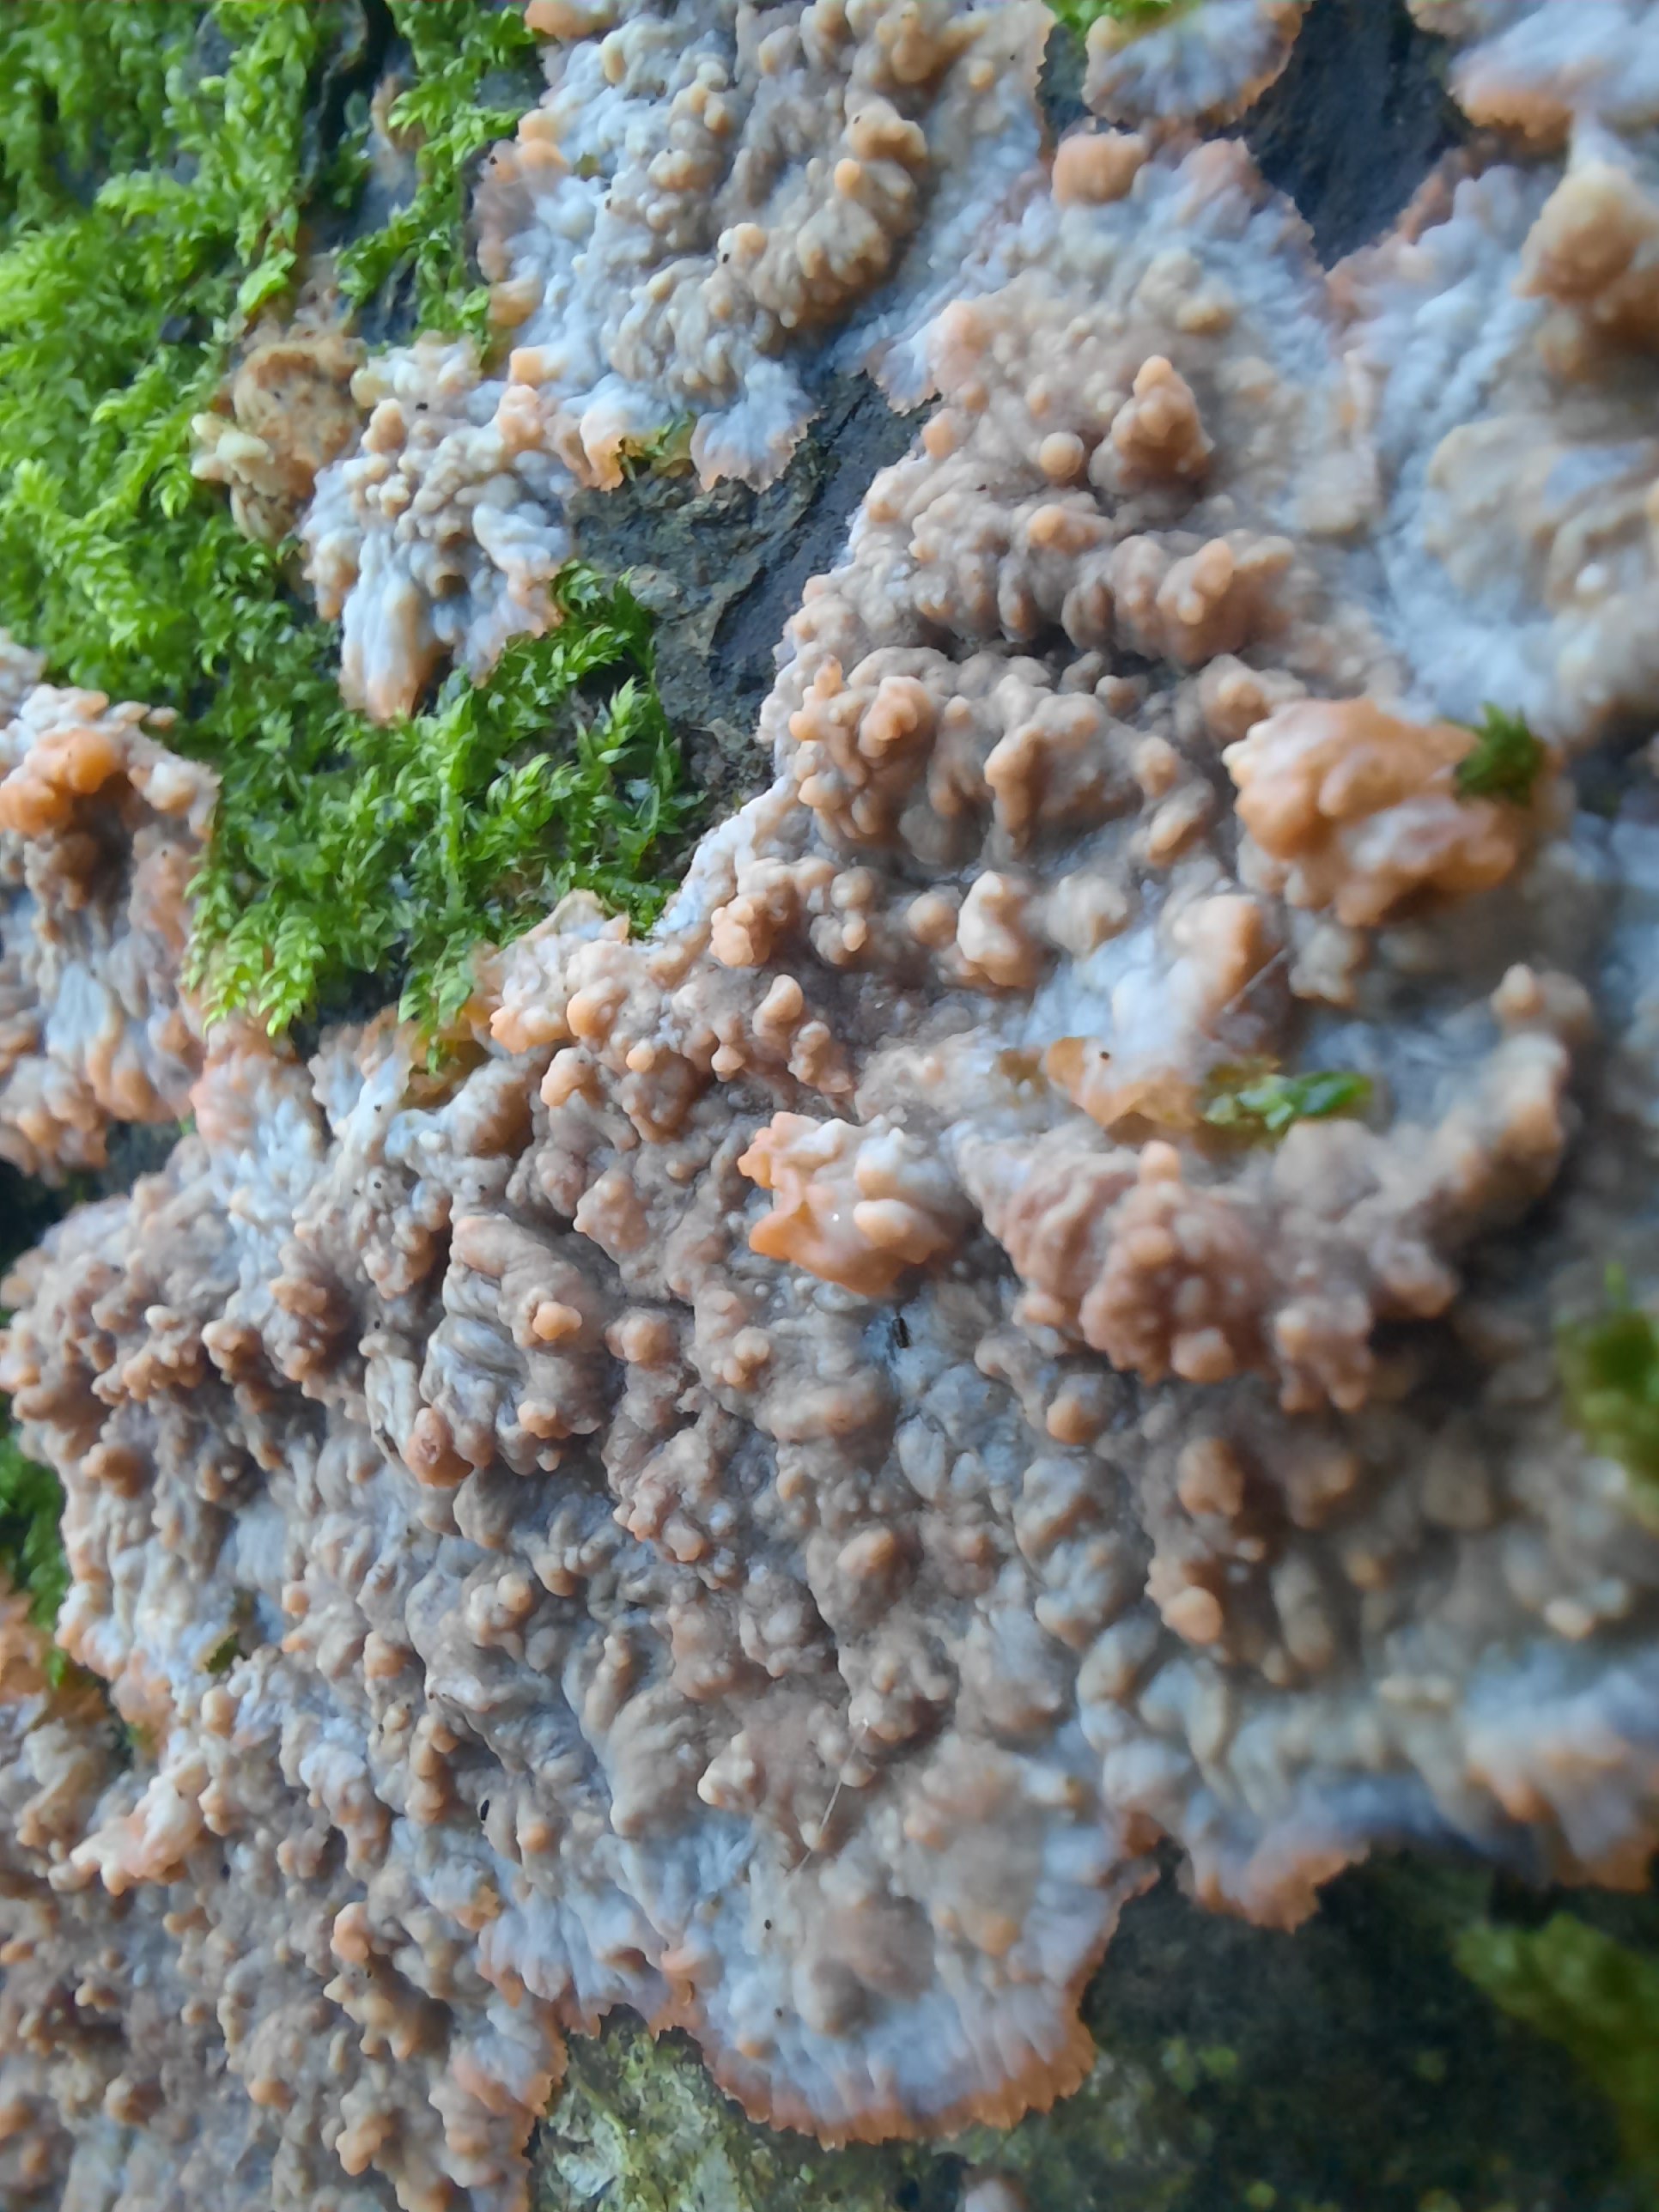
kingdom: Fungi
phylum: Basidiomycota
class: Agaricomycetes
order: Polyporales
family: Meruliaceae
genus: Phlebia
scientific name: Phlebia radiata
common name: stråle-åresvamp
